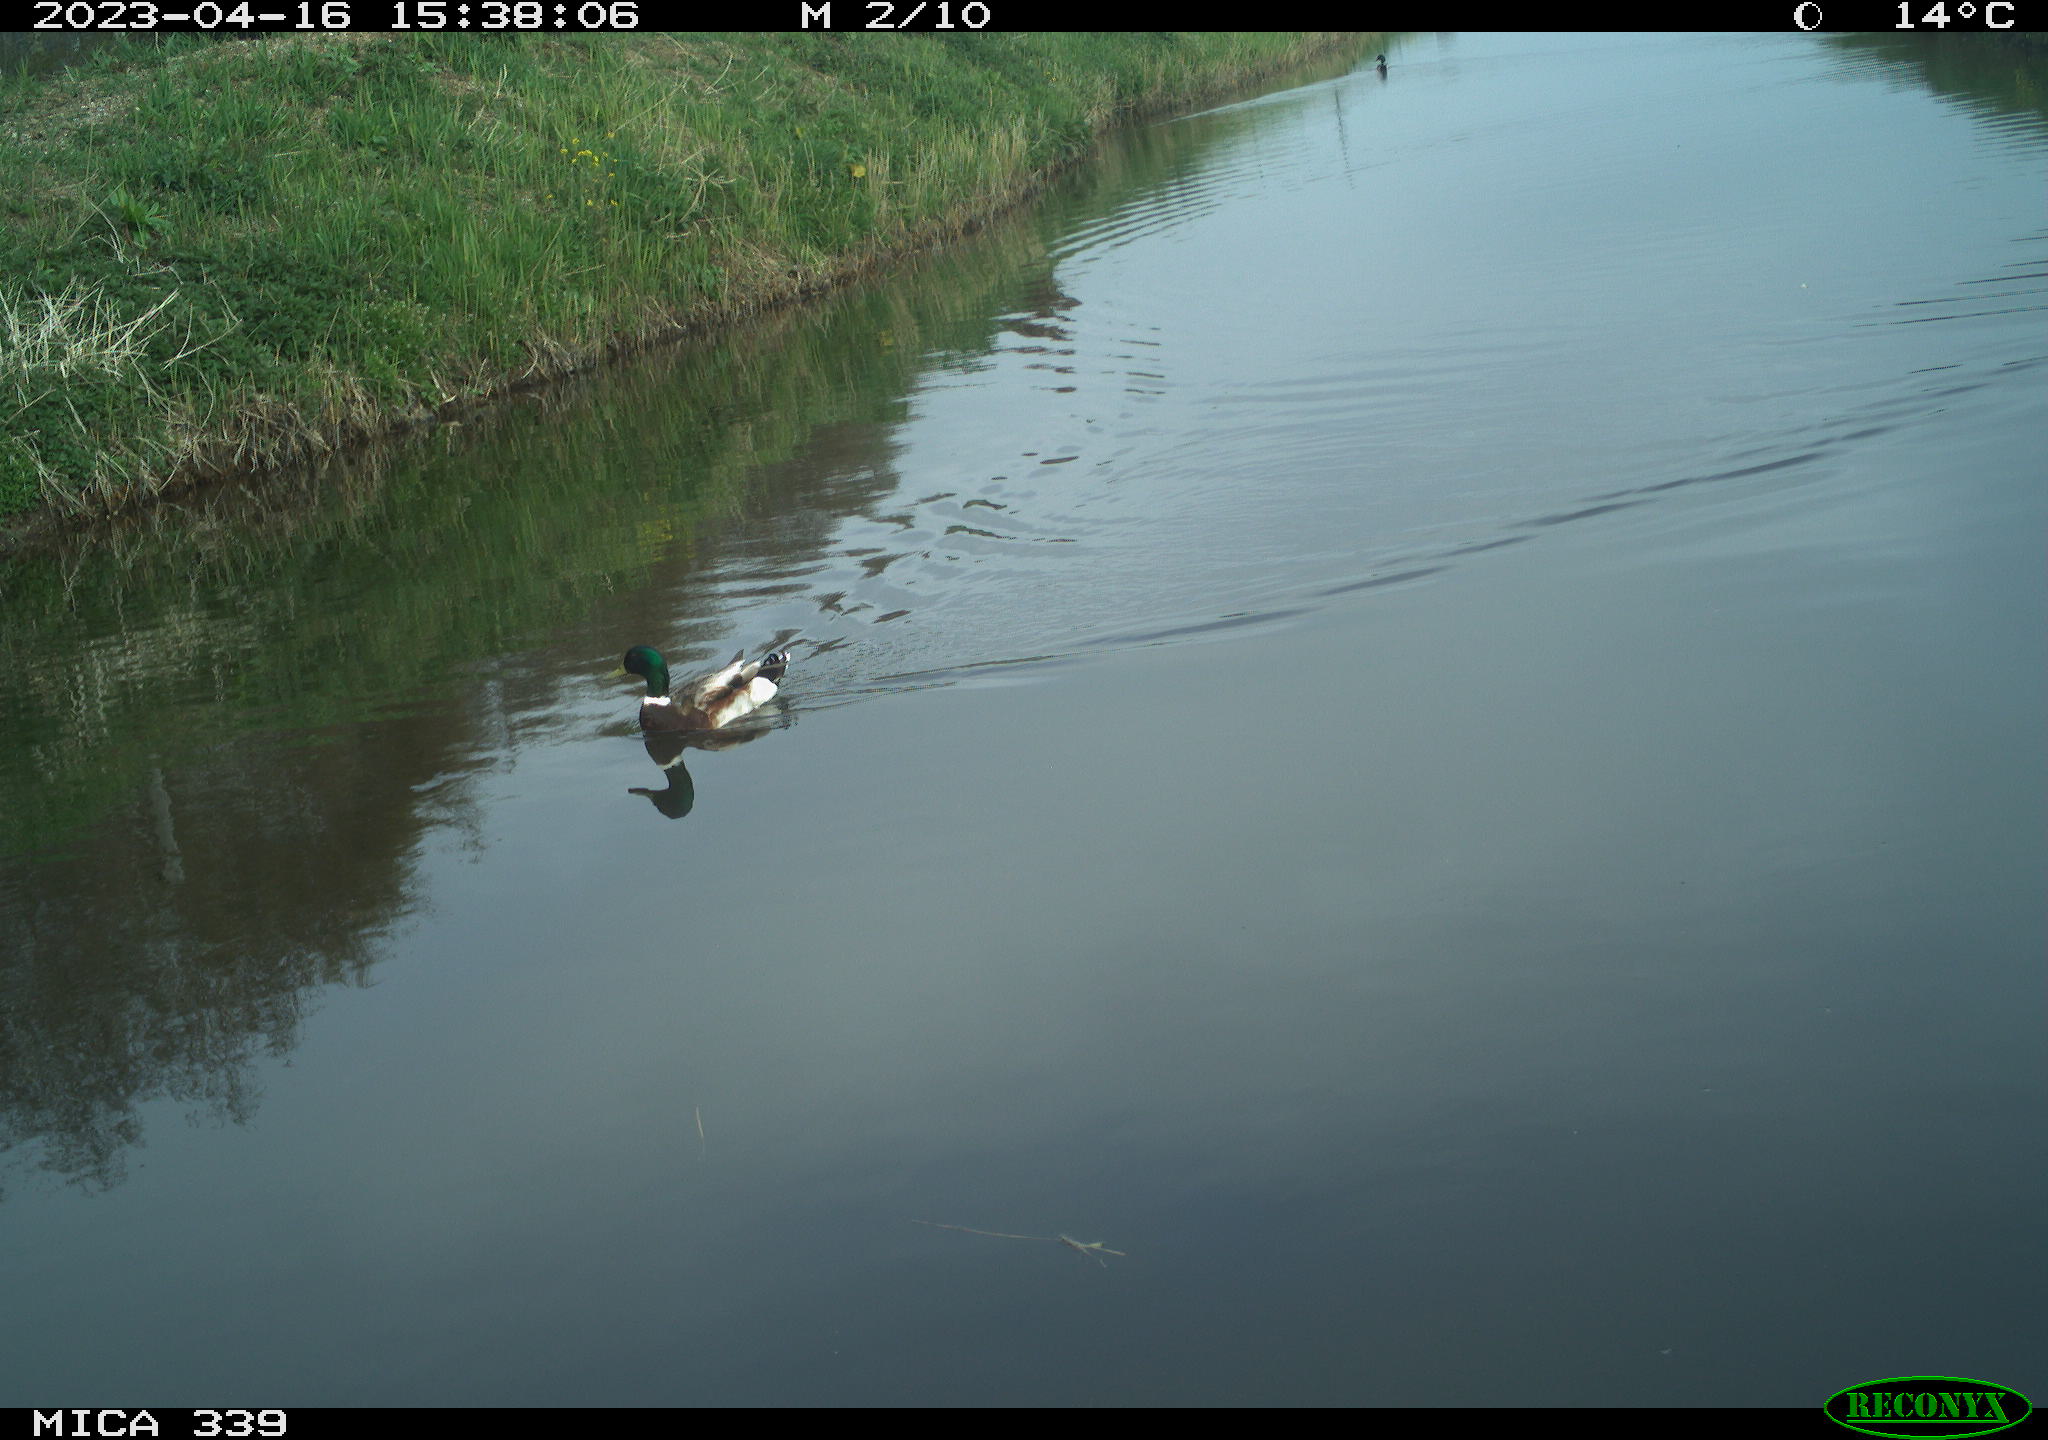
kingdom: Animalia
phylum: Chordata
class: Aves
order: Anseriformes
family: Anatidae
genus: Anas
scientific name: Anas
